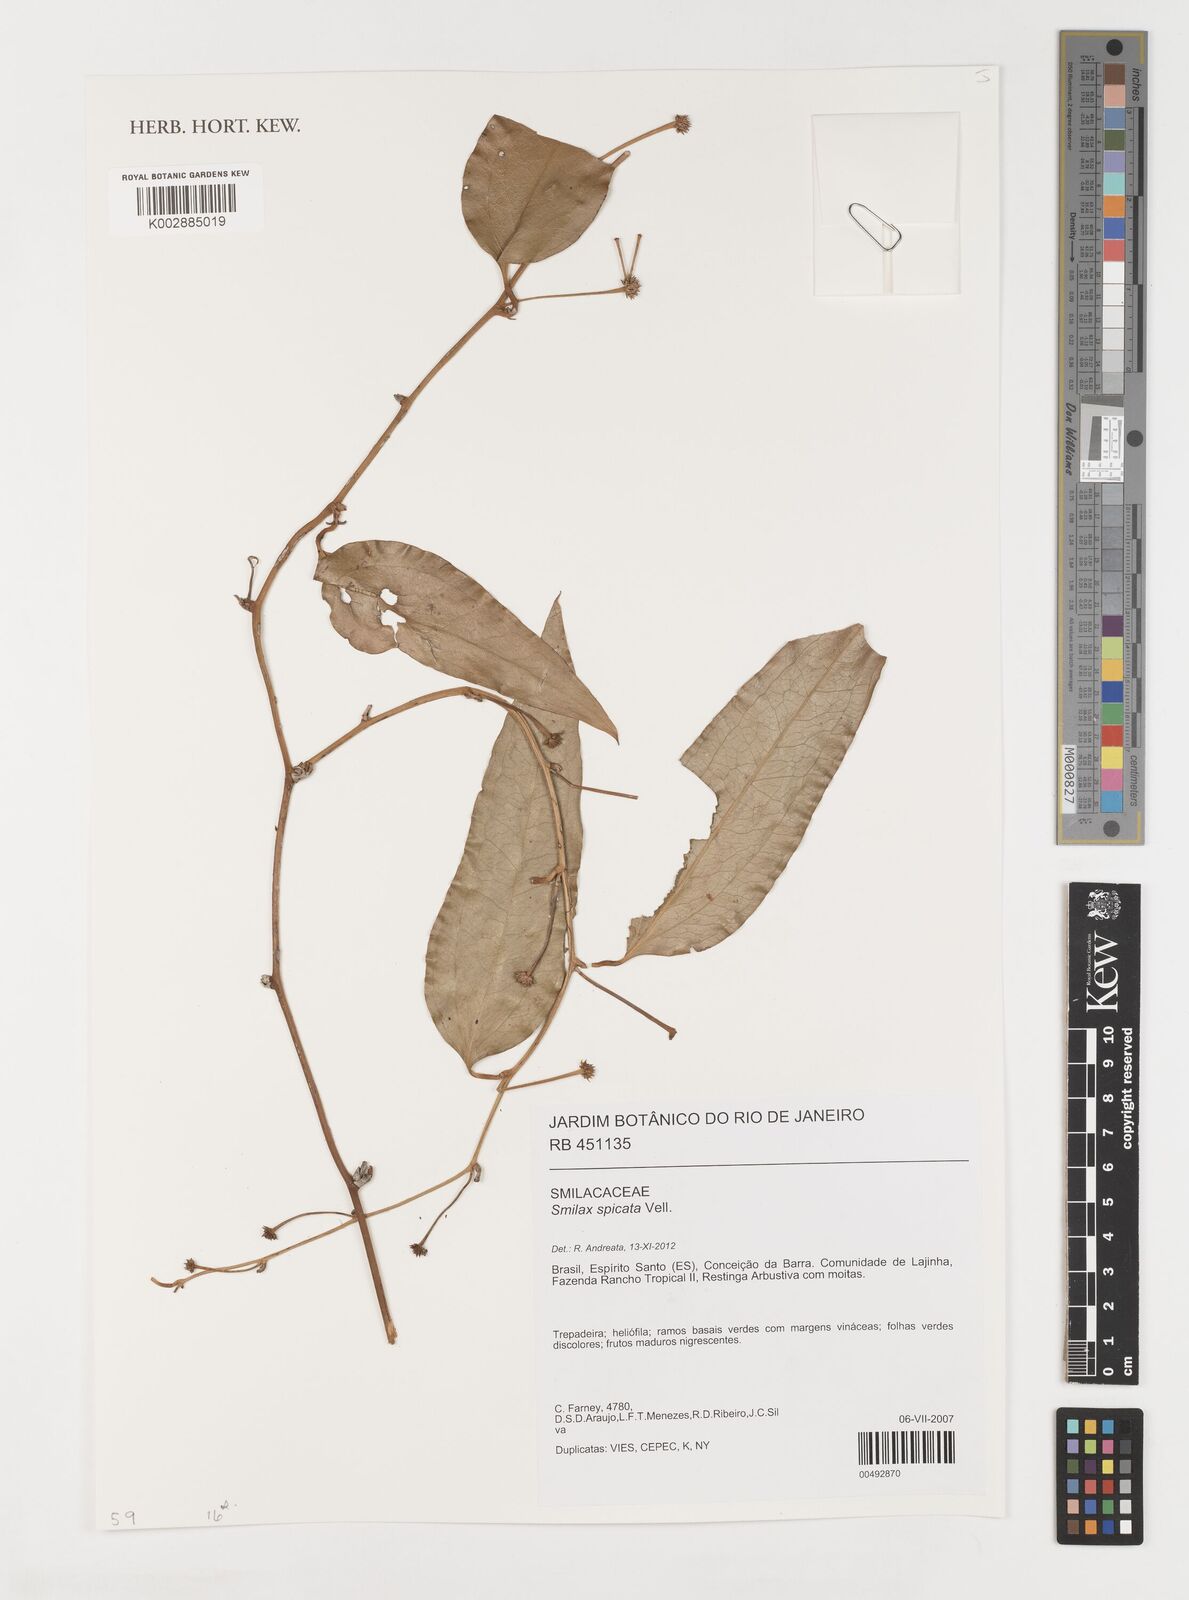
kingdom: Plantae
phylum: Tracheophyta
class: Liliopsida
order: Liliales
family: Smilacaceae
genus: Smilax
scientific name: Smilax spicata
